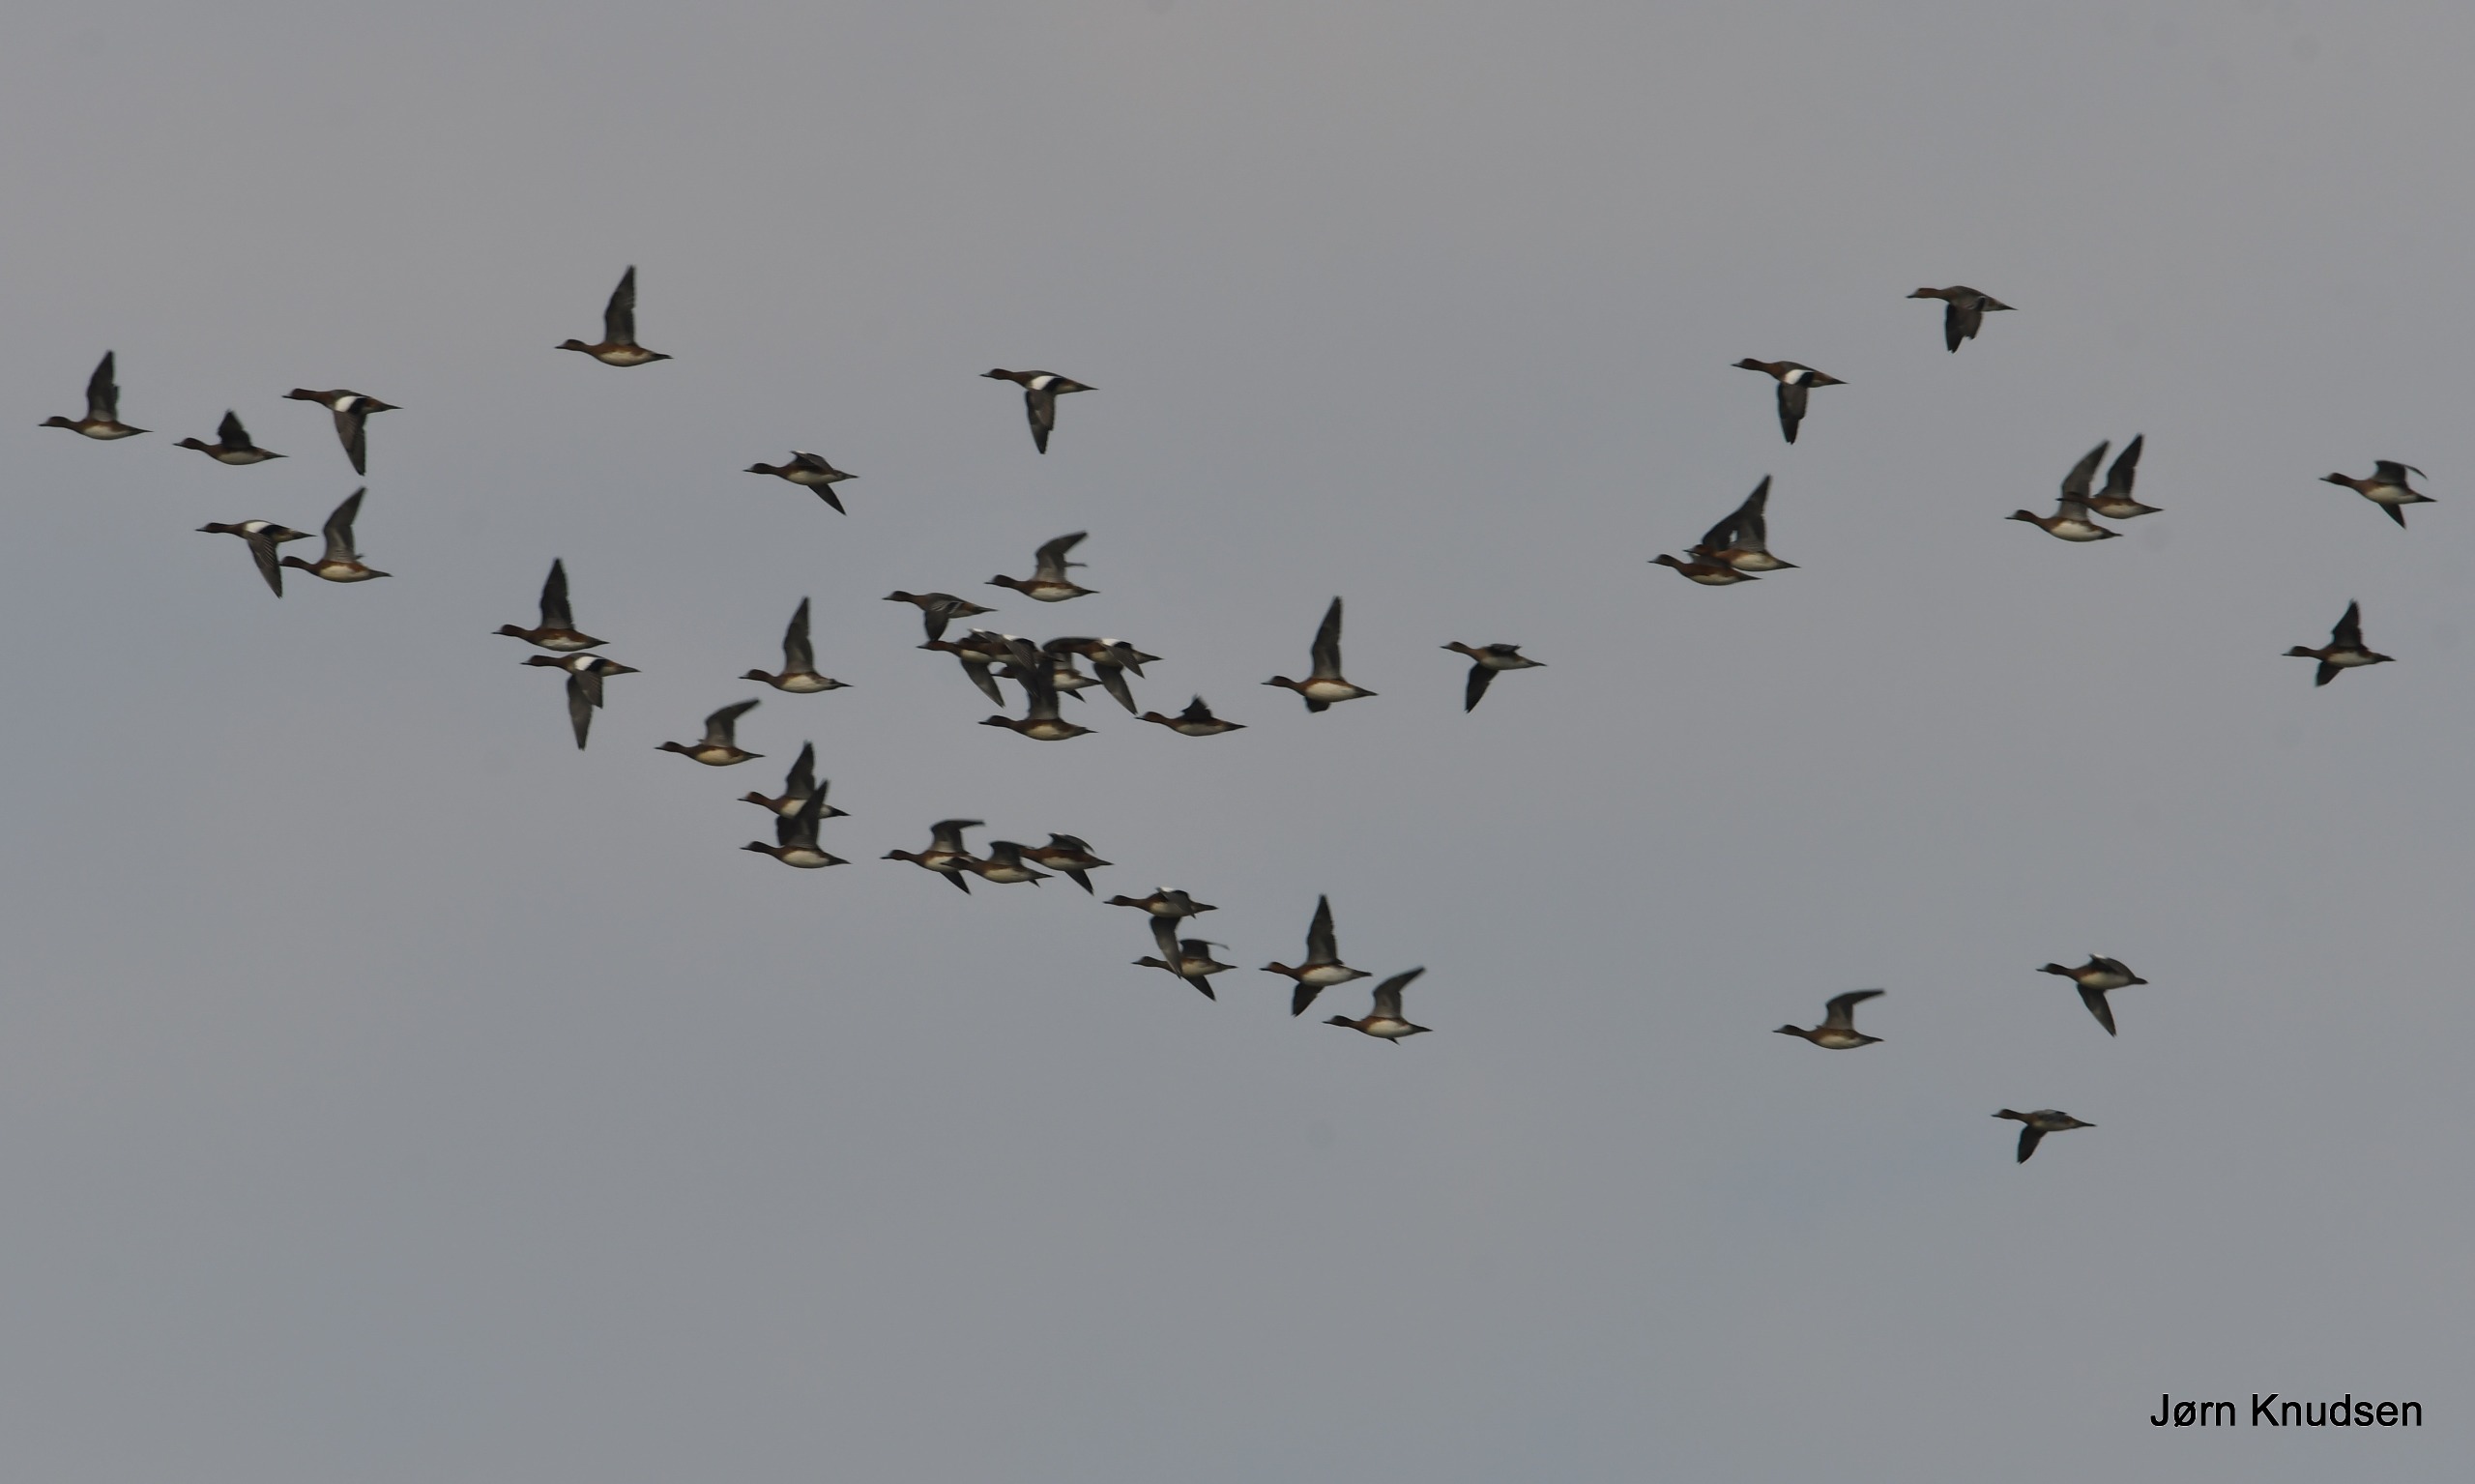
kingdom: Animalia
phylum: Chordata
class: Aves
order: Anseriformes
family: Anatidae
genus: Mareca
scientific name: Mareca penelope
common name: Pibeand
